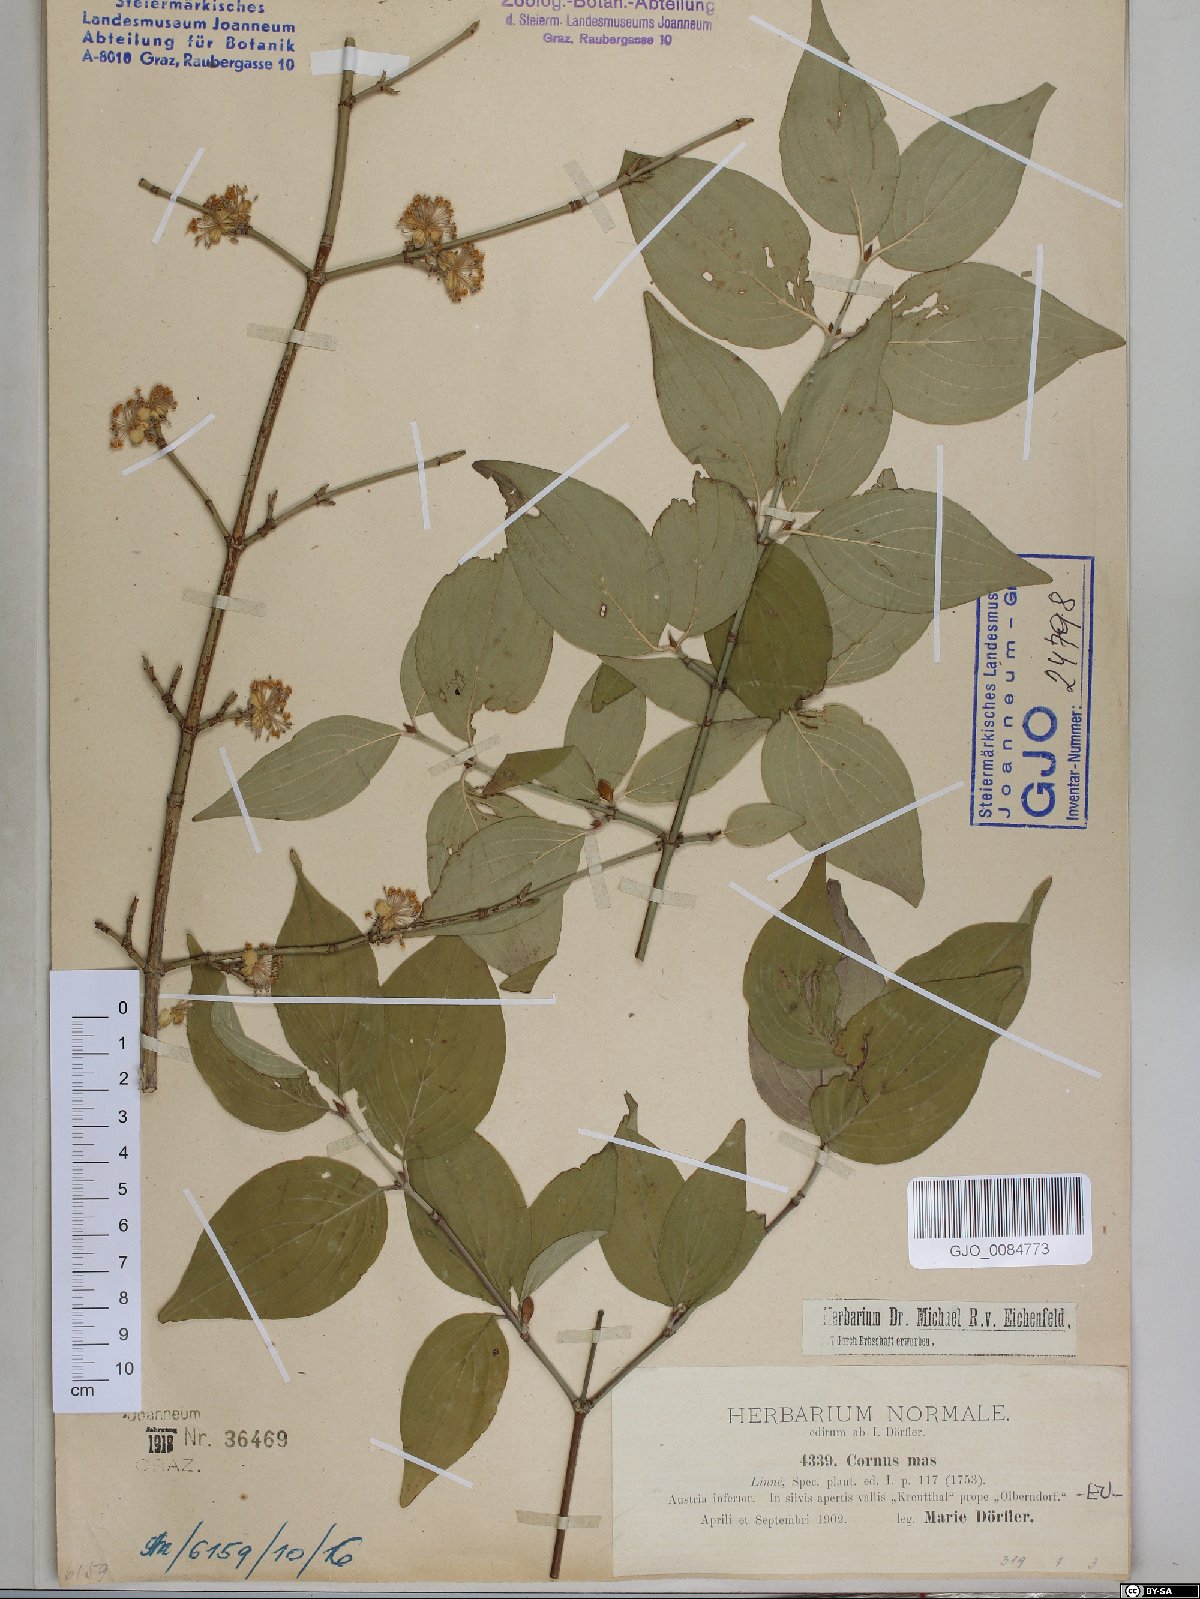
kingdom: Plantae
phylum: Tracheophyta
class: Magnoliopsida
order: Cornales
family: Cornaceae
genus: Cornus
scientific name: Cornus mas
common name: Cornelian-cherry
